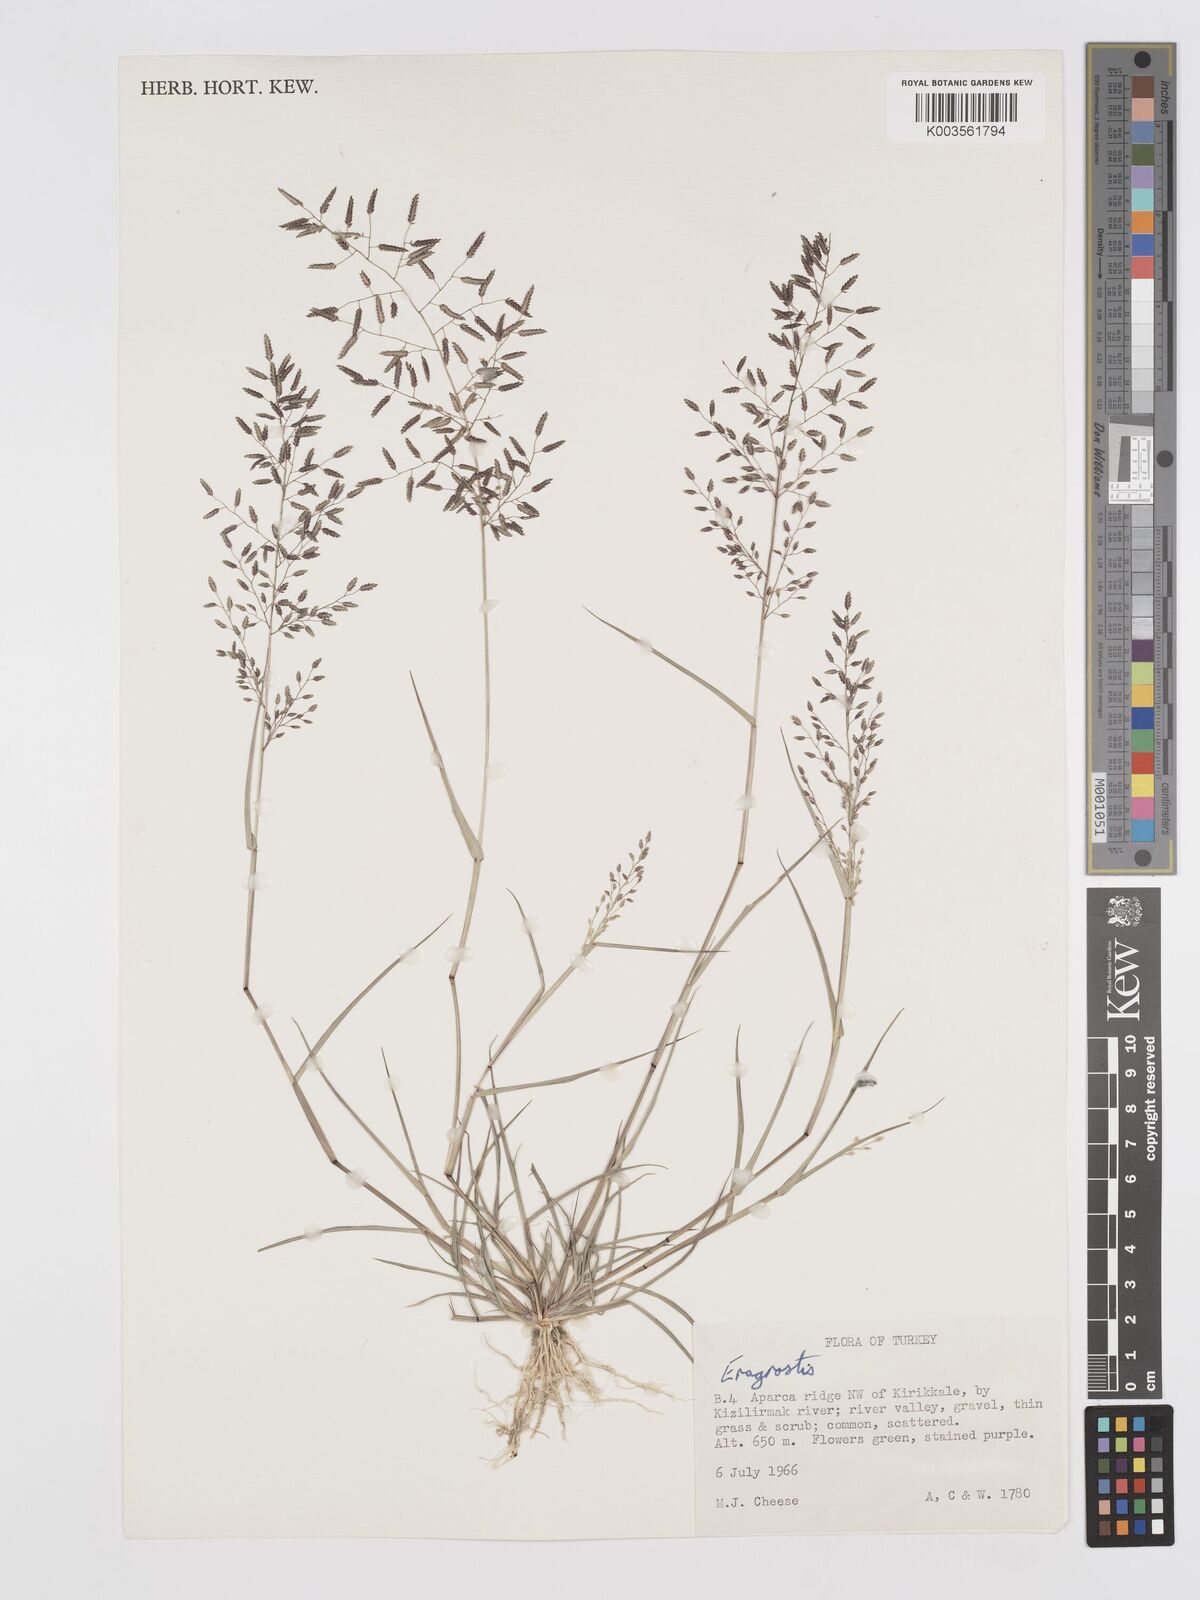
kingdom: Plantae
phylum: Tracheophyta
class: Liliopsida
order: Poales
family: Poaceae
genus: Eragrostis
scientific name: Eragrostis
